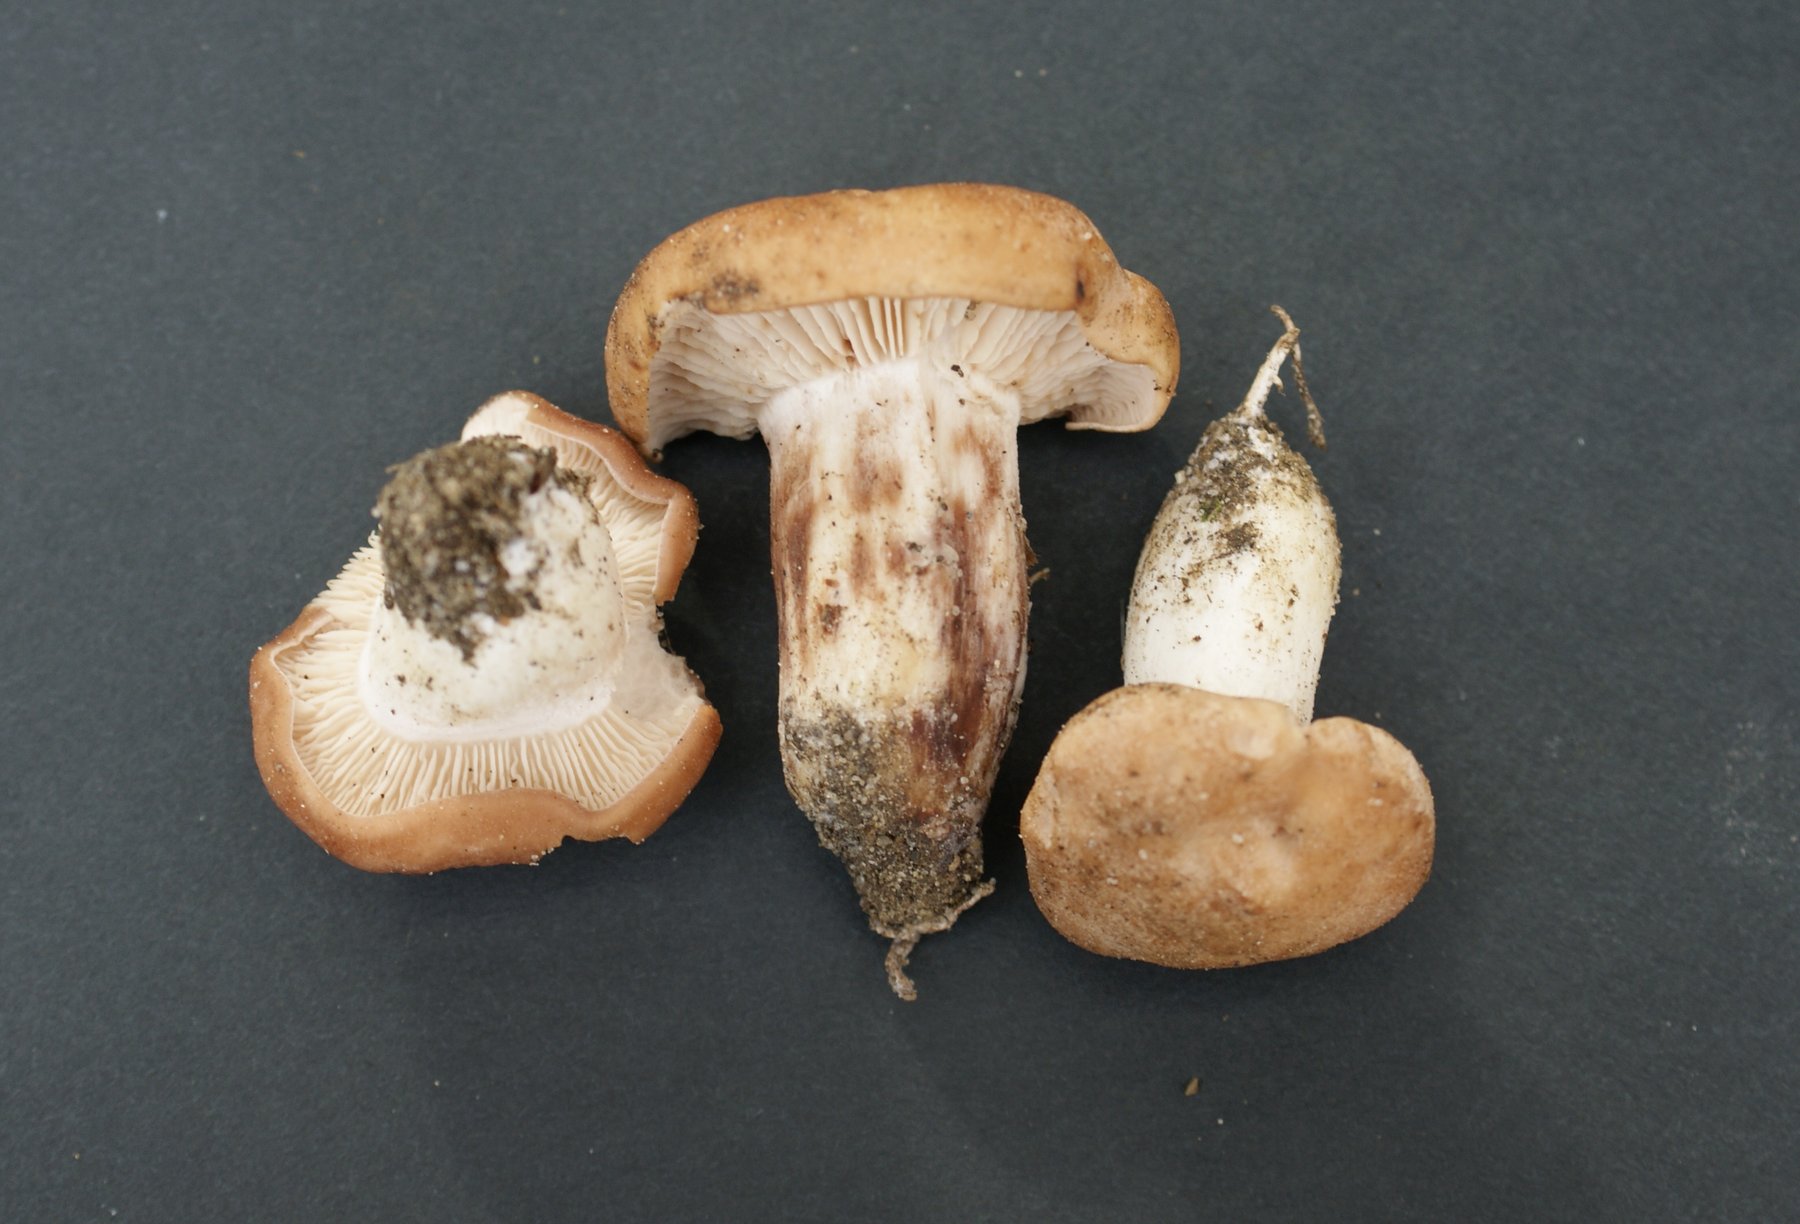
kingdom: Fungi
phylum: Basidiomycota
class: Agaricomycetes
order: Agaricales
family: Entolomataceae
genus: Clitopilus
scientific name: Clitopilus geminus
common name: kødfarvet troldhat
